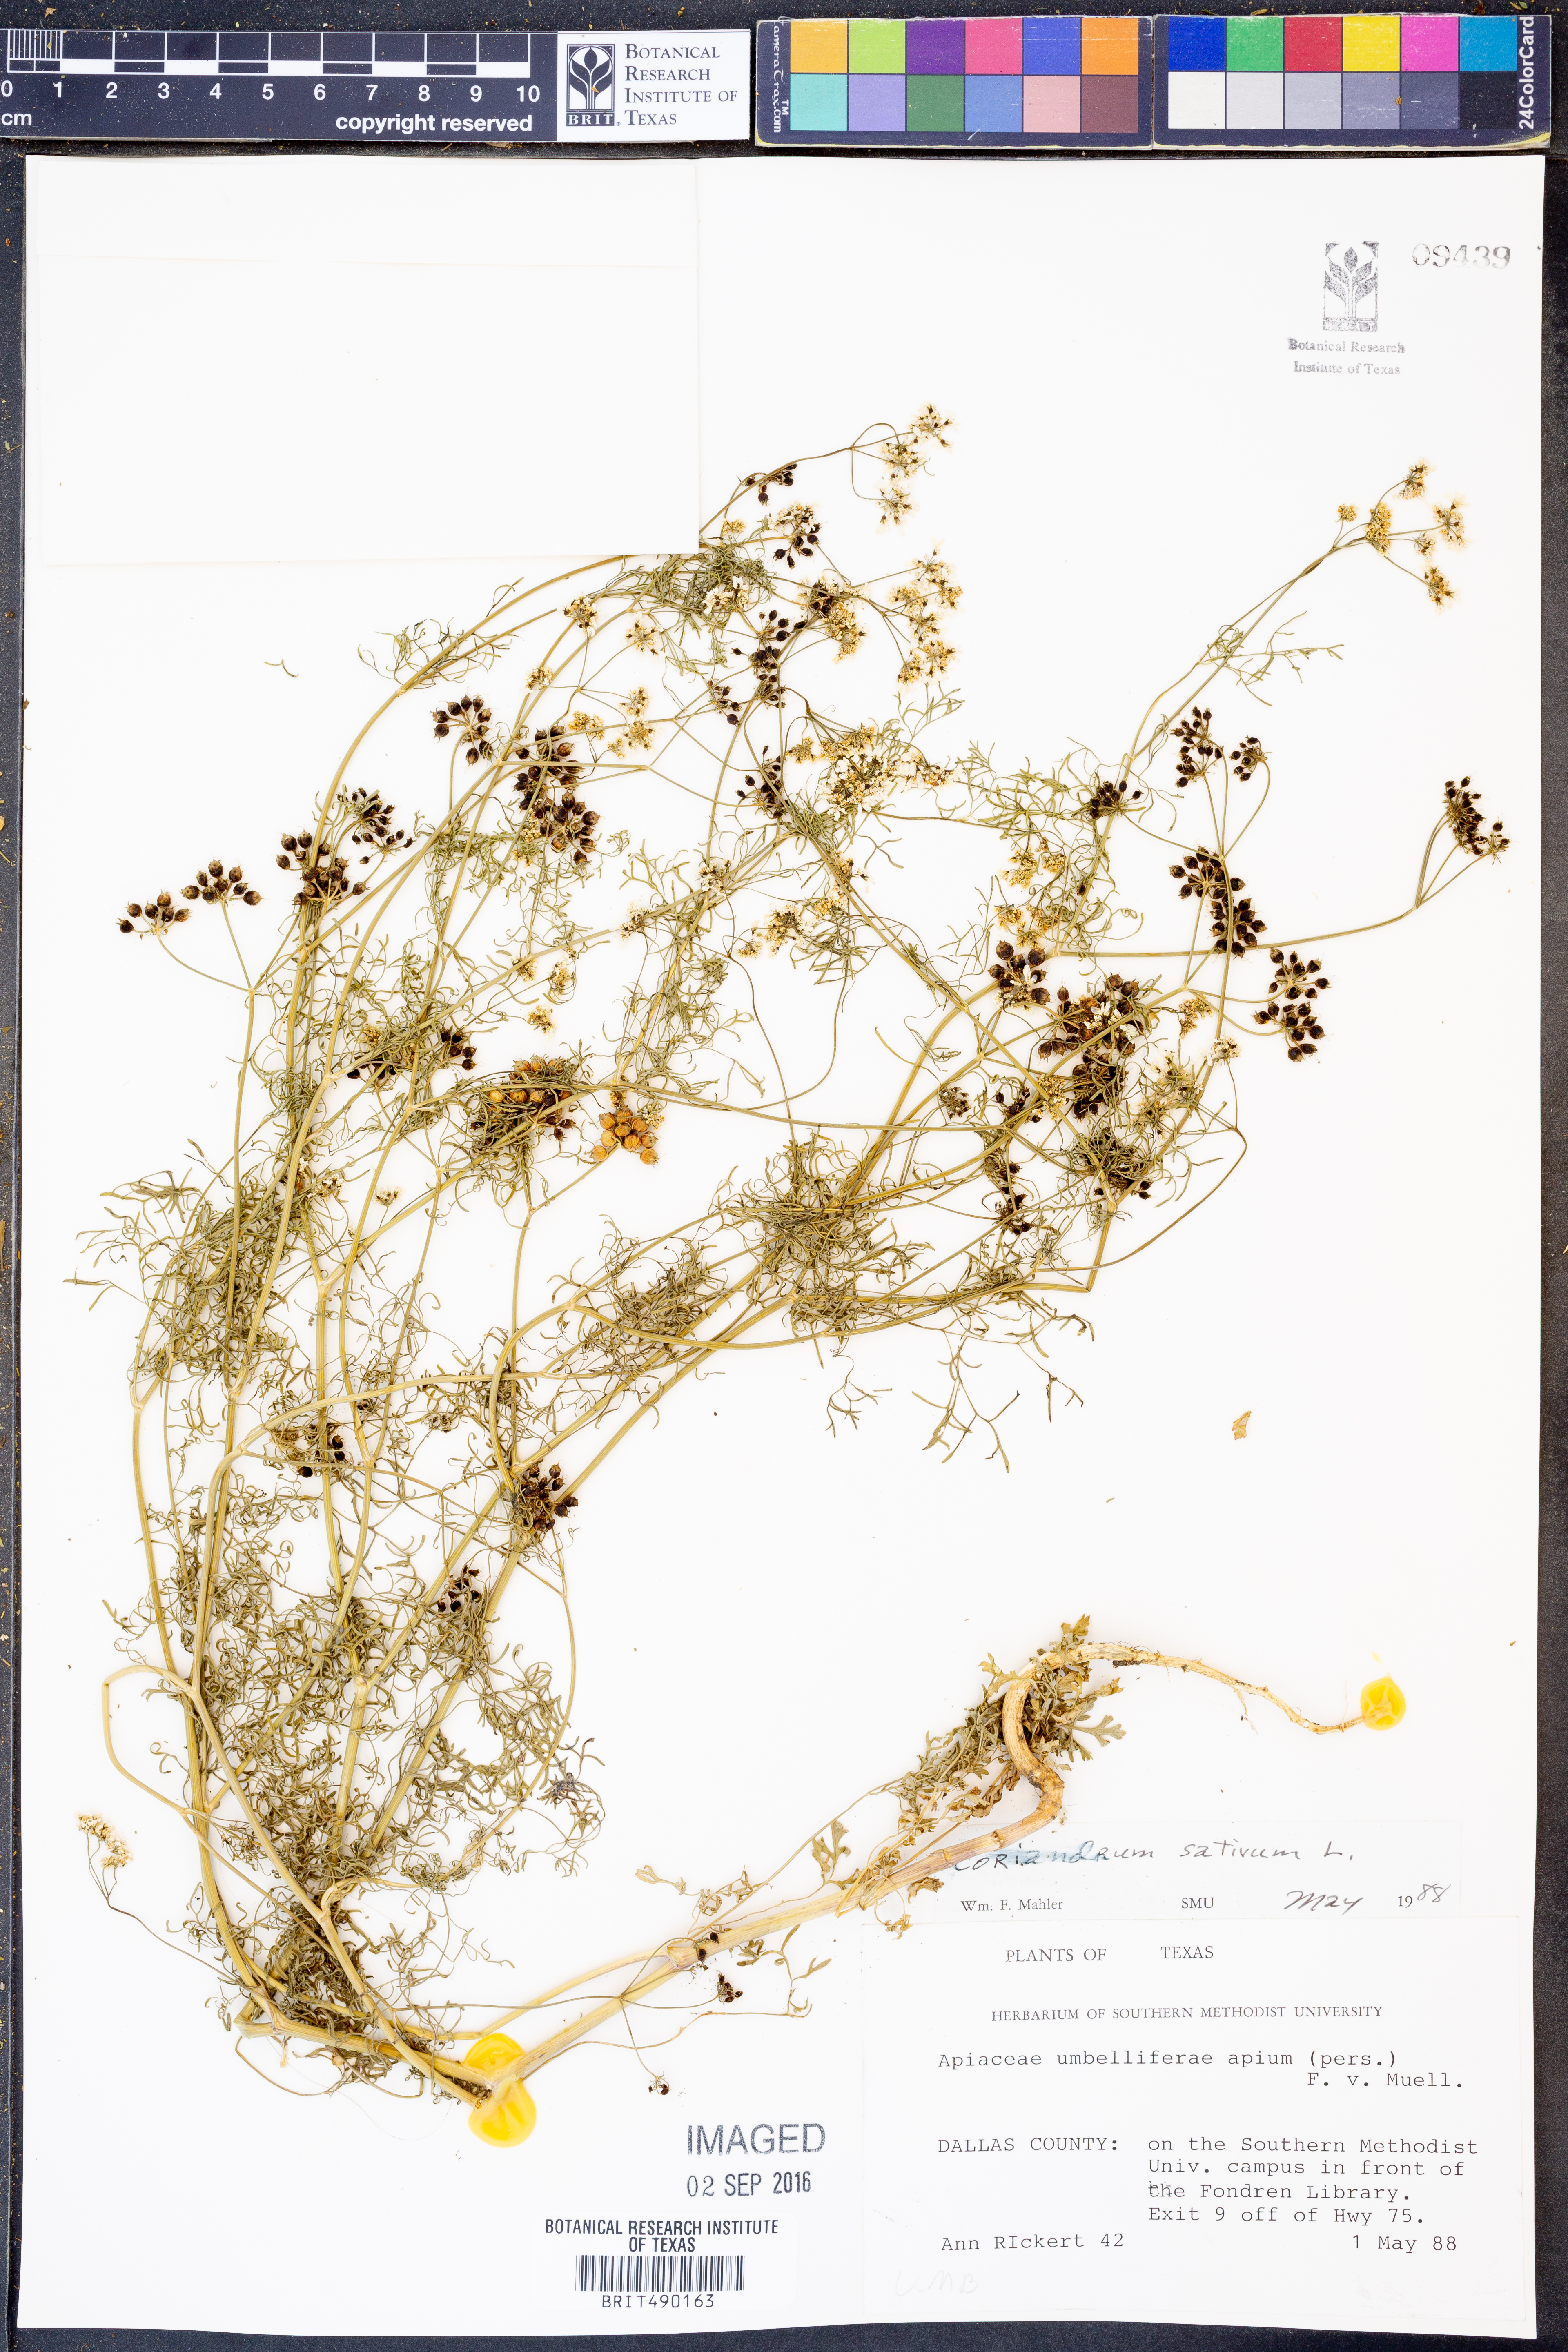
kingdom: Plantae
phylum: Tracheophyta
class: Magnoliopsida
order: Apiales
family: Apiaceae
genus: Coriandrum
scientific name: Coriandrum sativum
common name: Coriander
